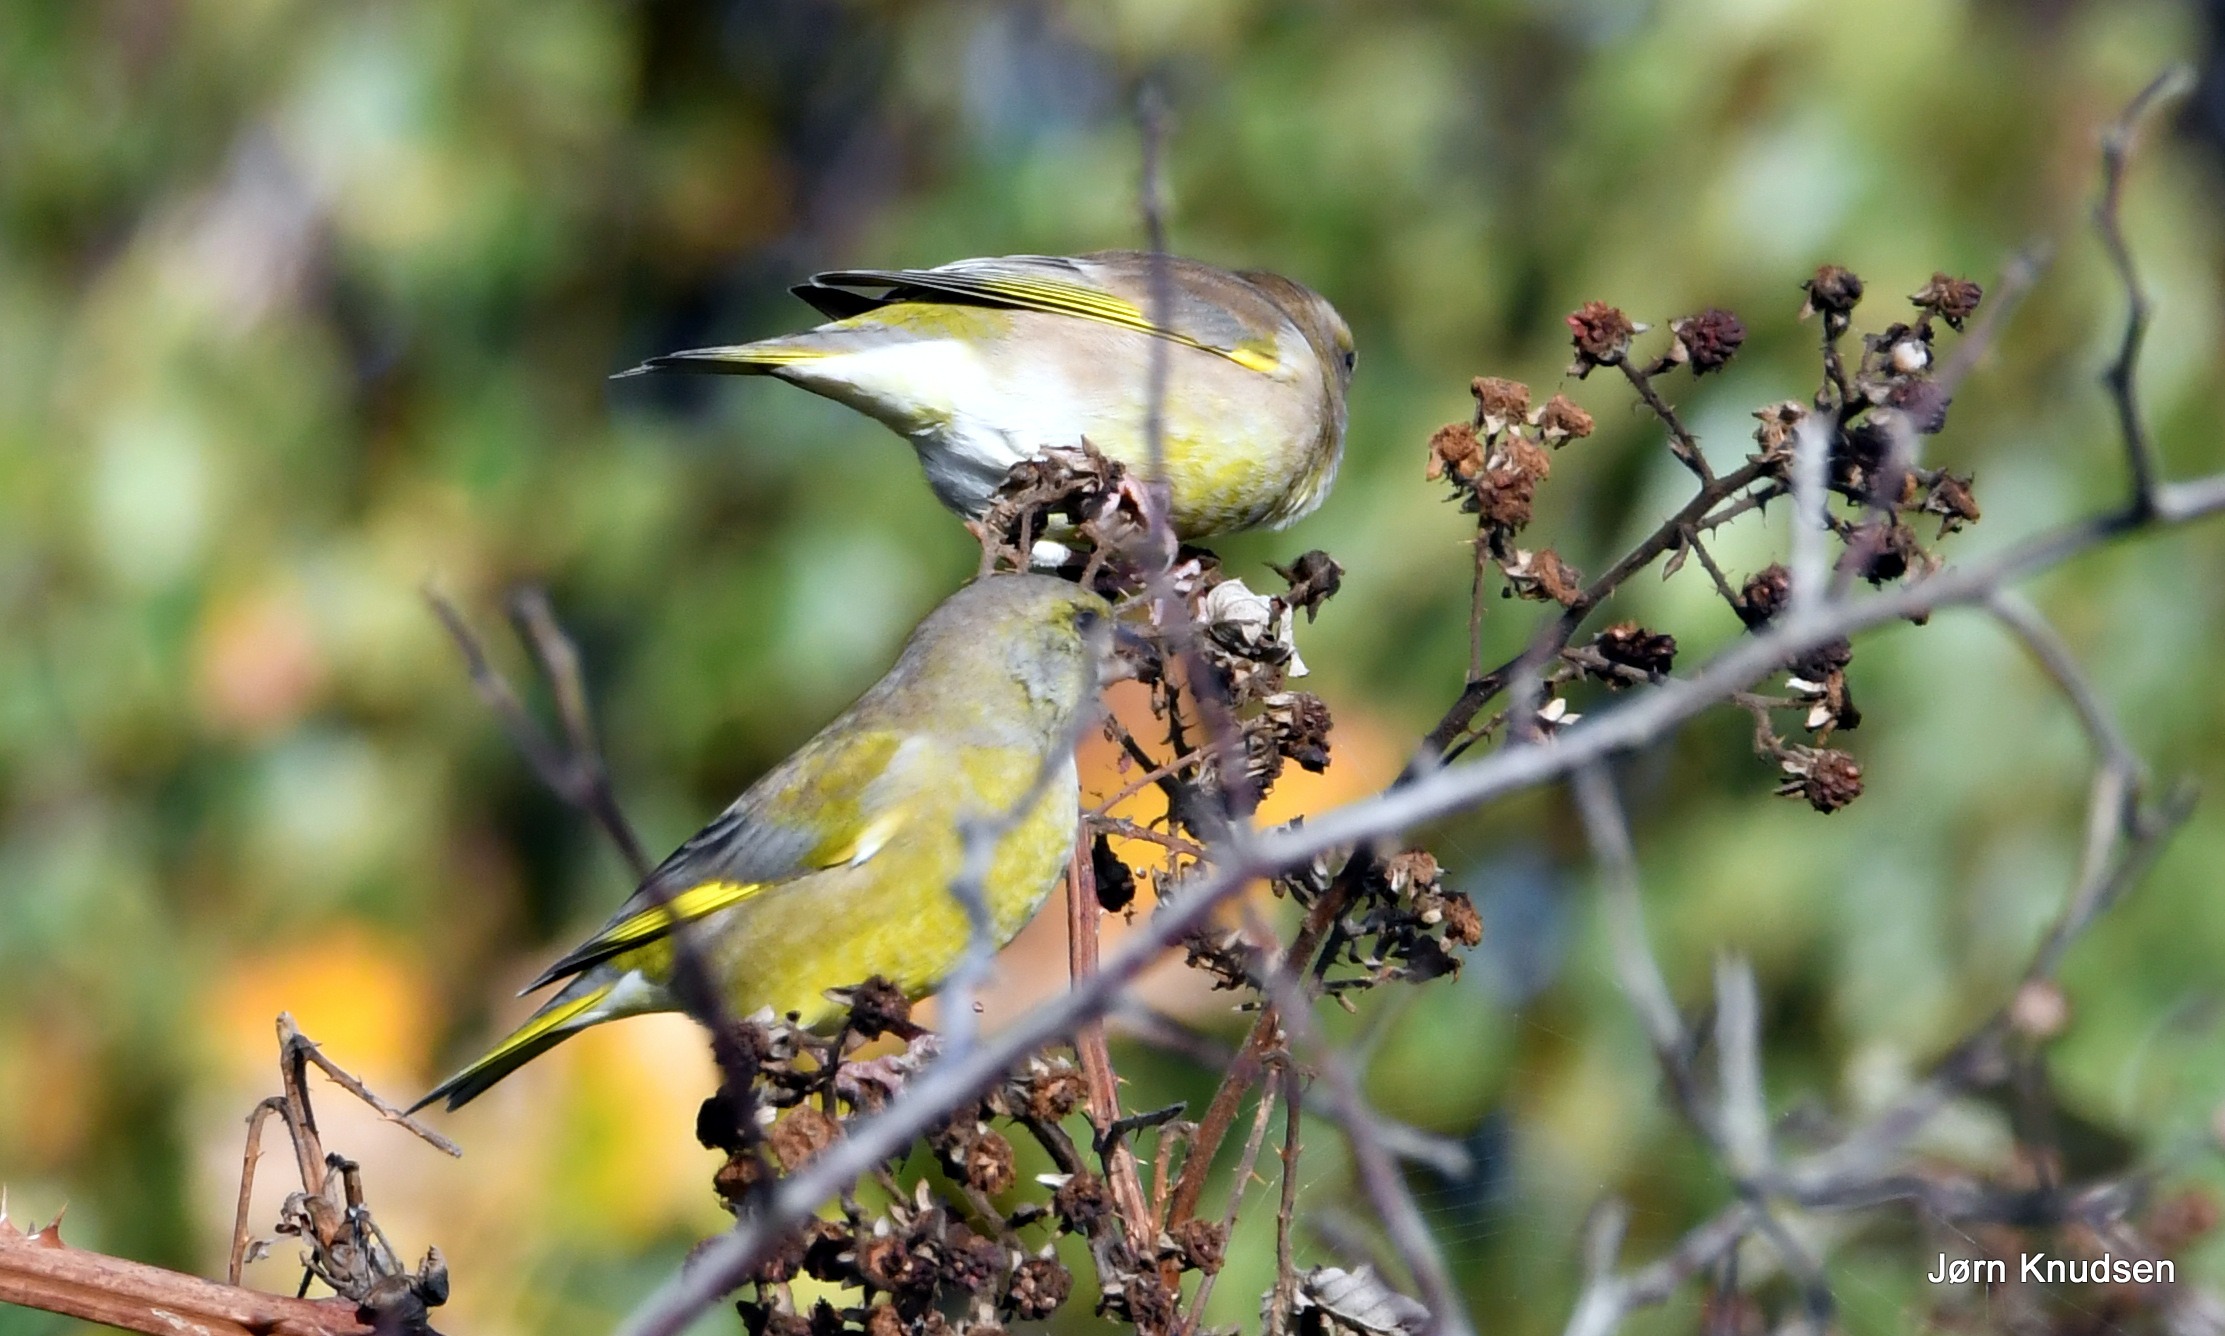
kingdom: Plantae
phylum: Tracheophyta
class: Liliopsida
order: Poales
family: Poaceae
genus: Chloris
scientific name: Chloris chloris
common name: Grønirisk
